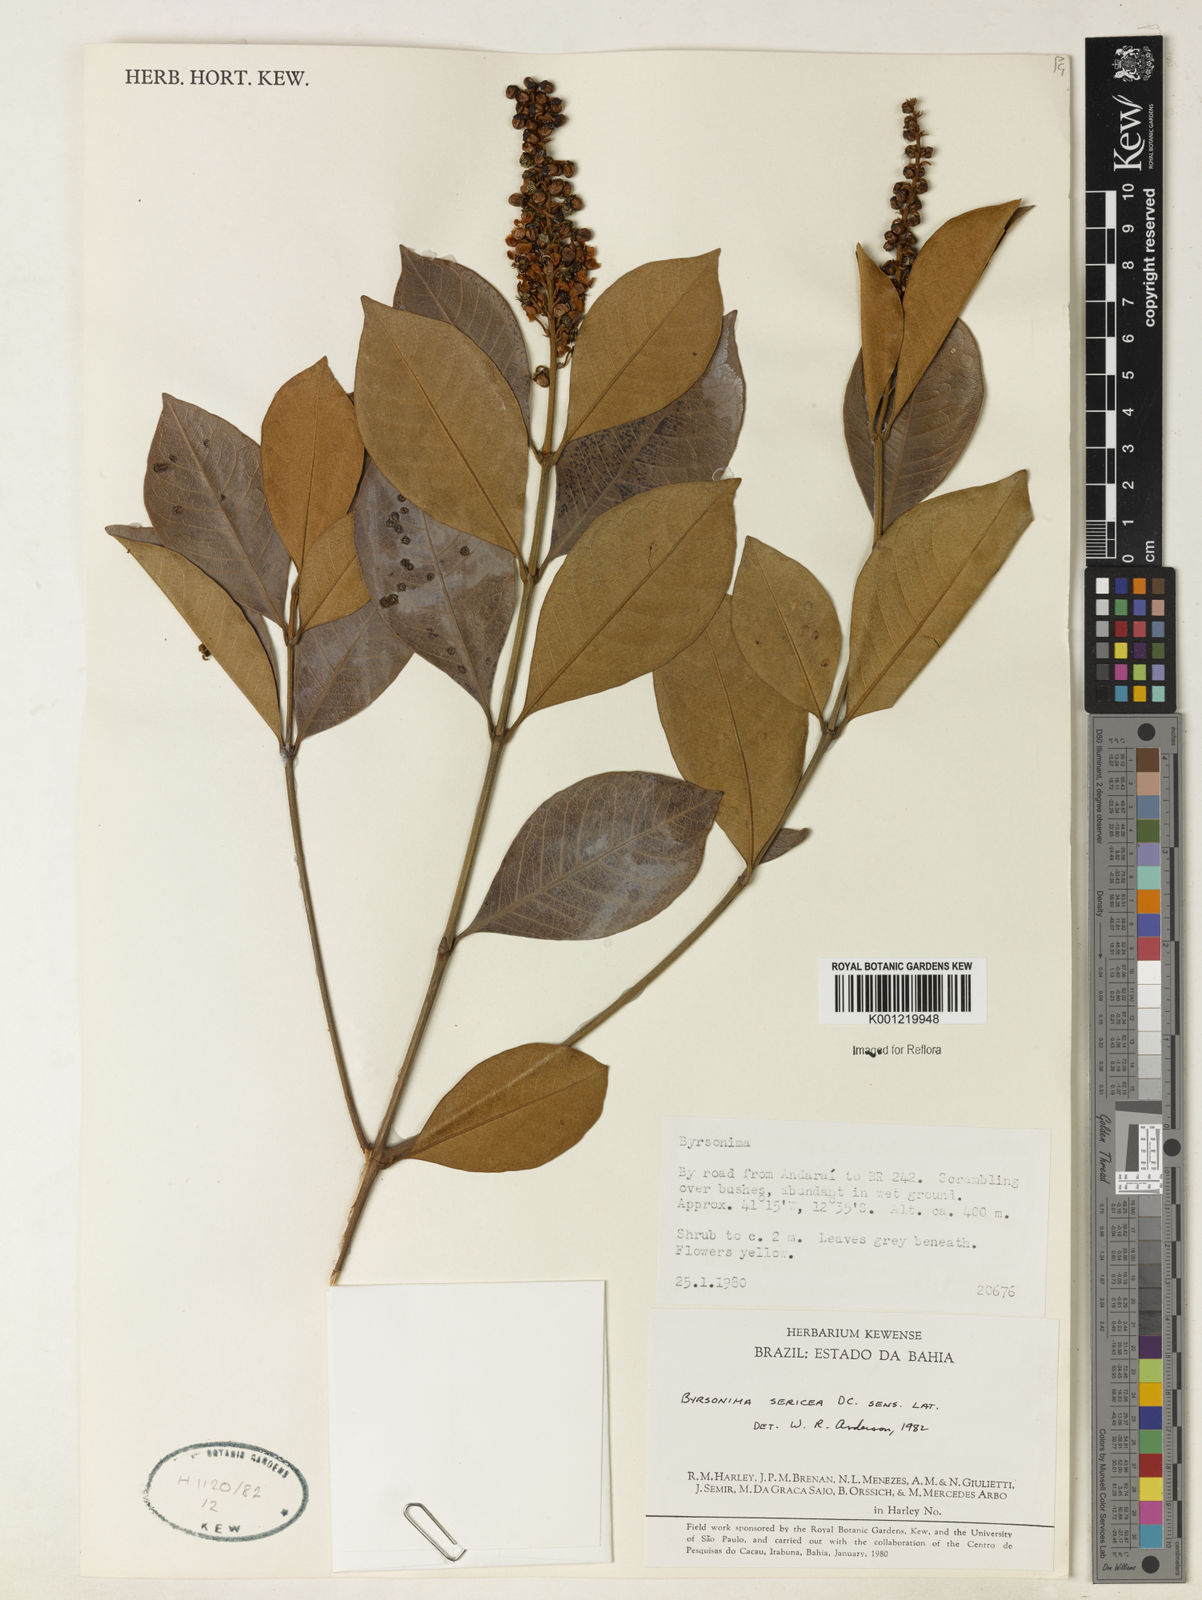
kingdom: Plantae
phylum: Tracheophyta
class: Magnoliopsida
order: Malpighiales
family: Malpighiaceae
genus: Byrsonima
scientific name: Byrsonima sericea
